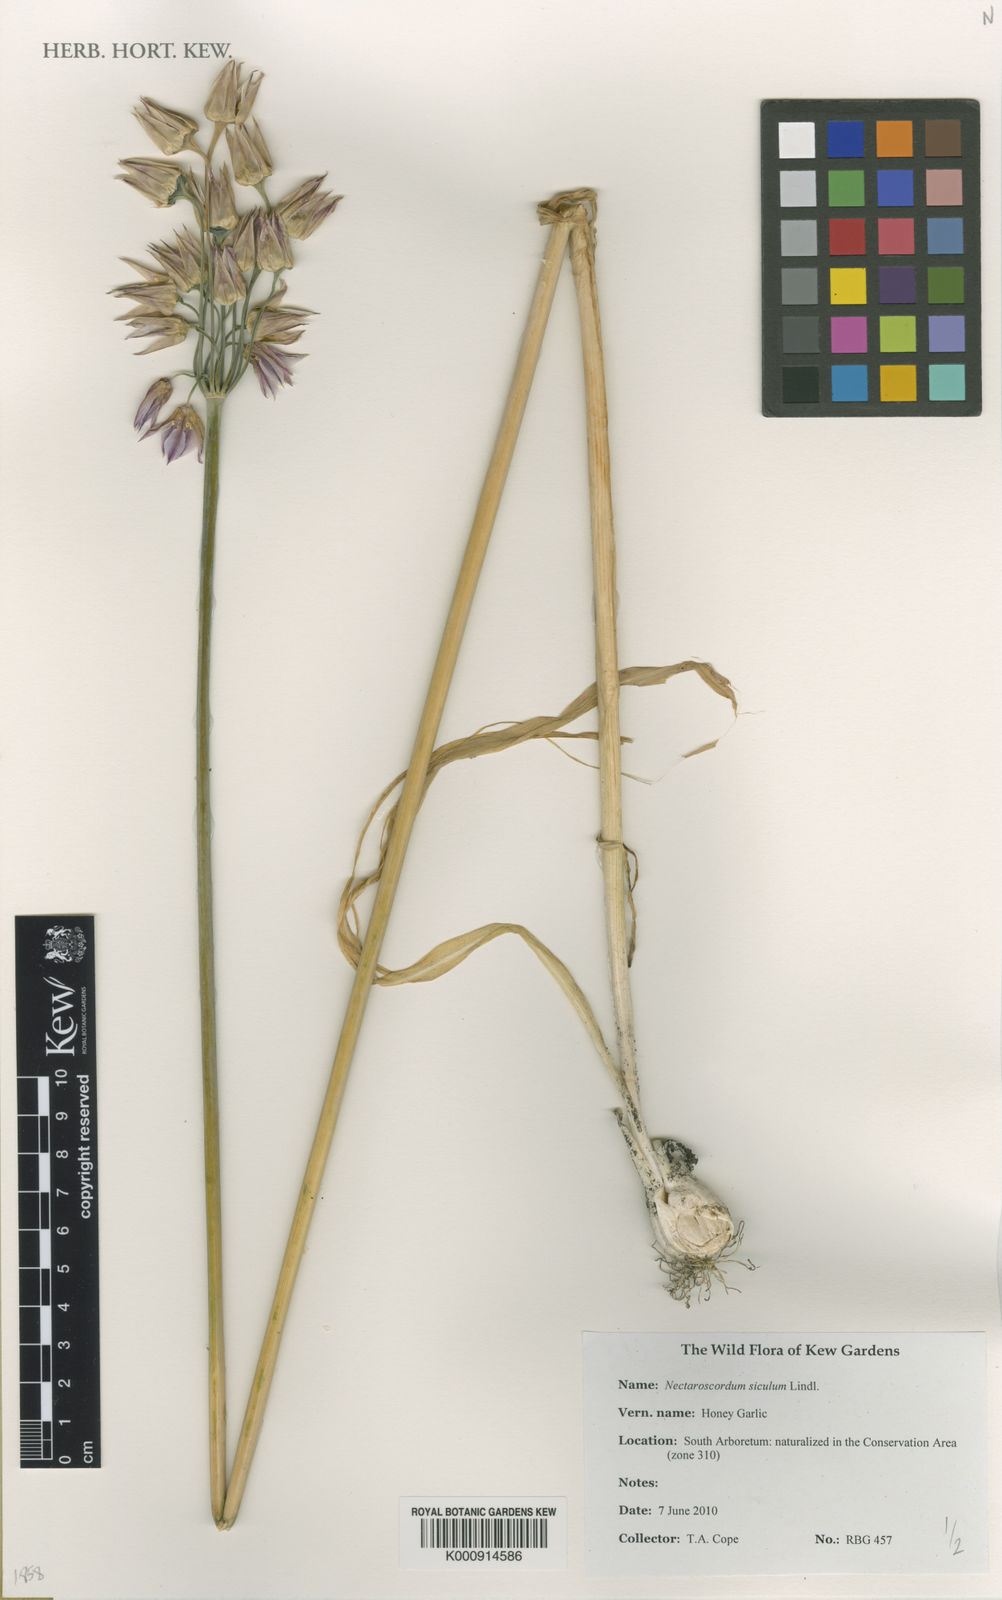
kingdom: Plantae
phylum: Tracheophyta
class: Liliopsida
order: Asparagales
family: Amaryllidaceae
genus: Allium
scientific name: Allium siculum
